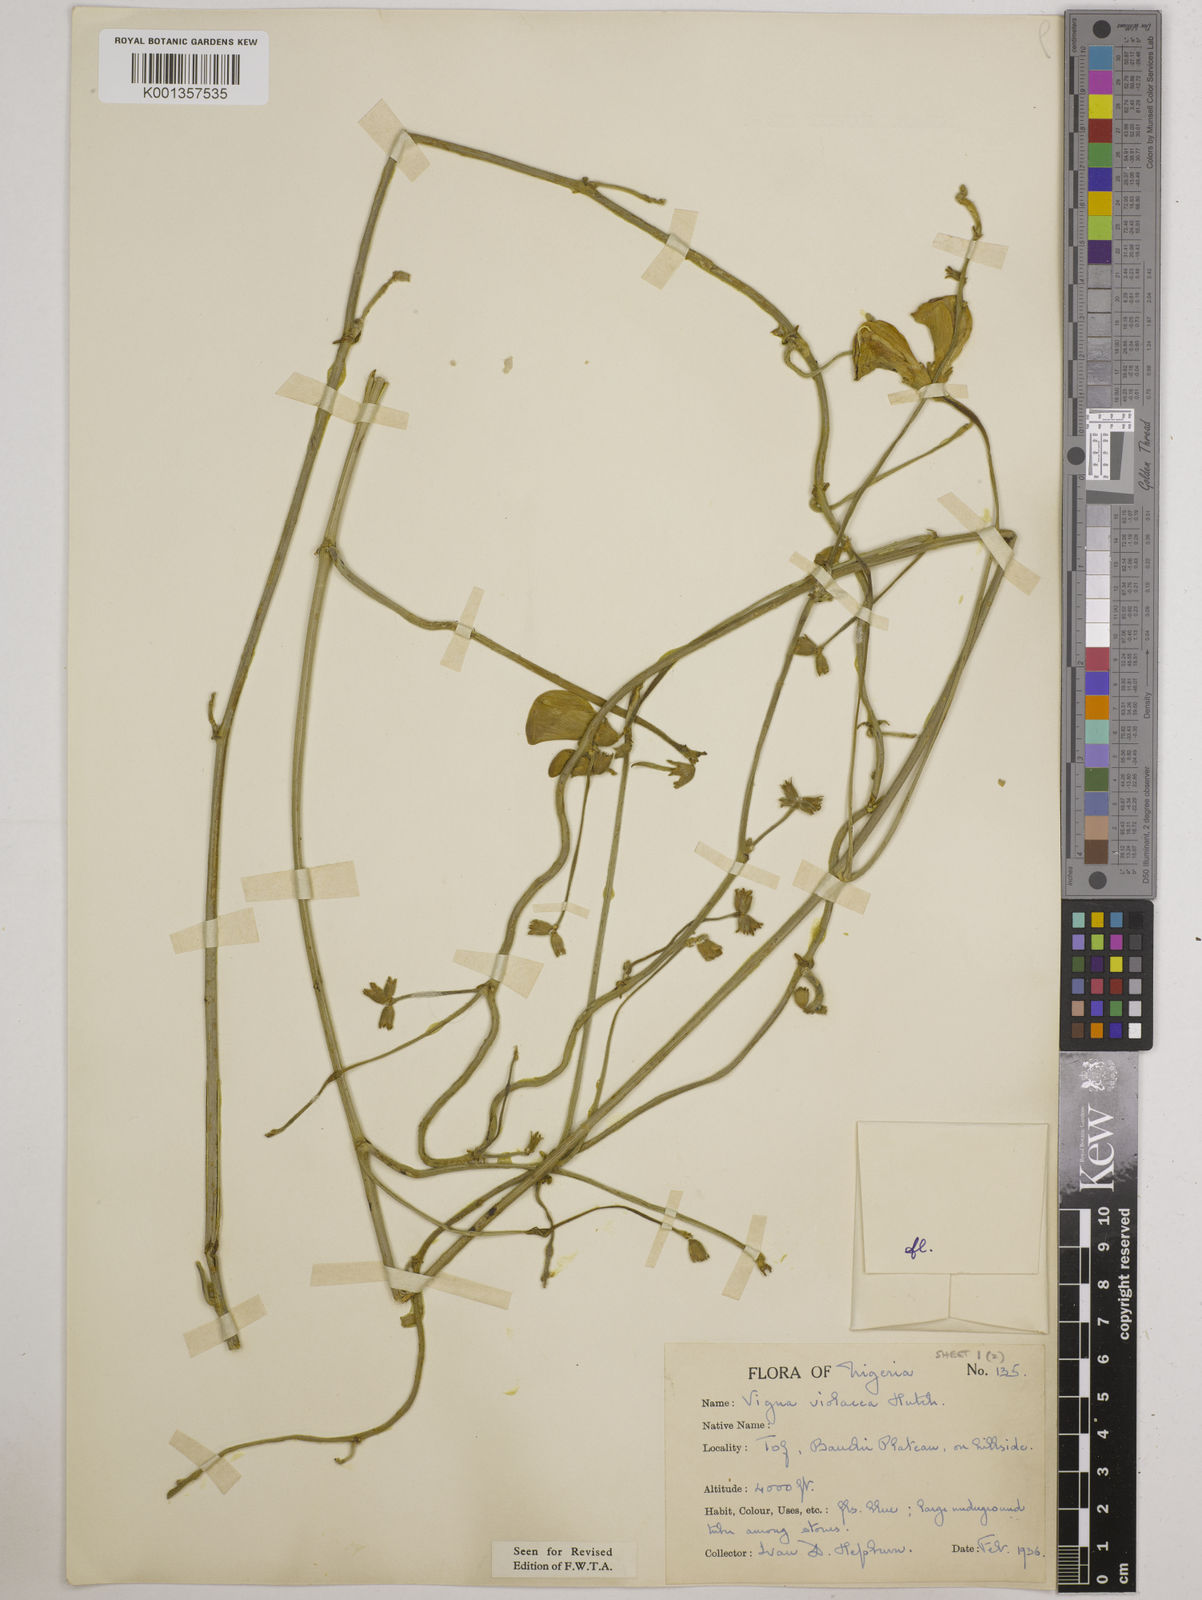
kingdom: Plantae
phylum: Tracheophyta
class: Magnoliopsida
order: Fabales
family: Fabaceae
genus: Vigna
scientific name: Vigna frutescens
